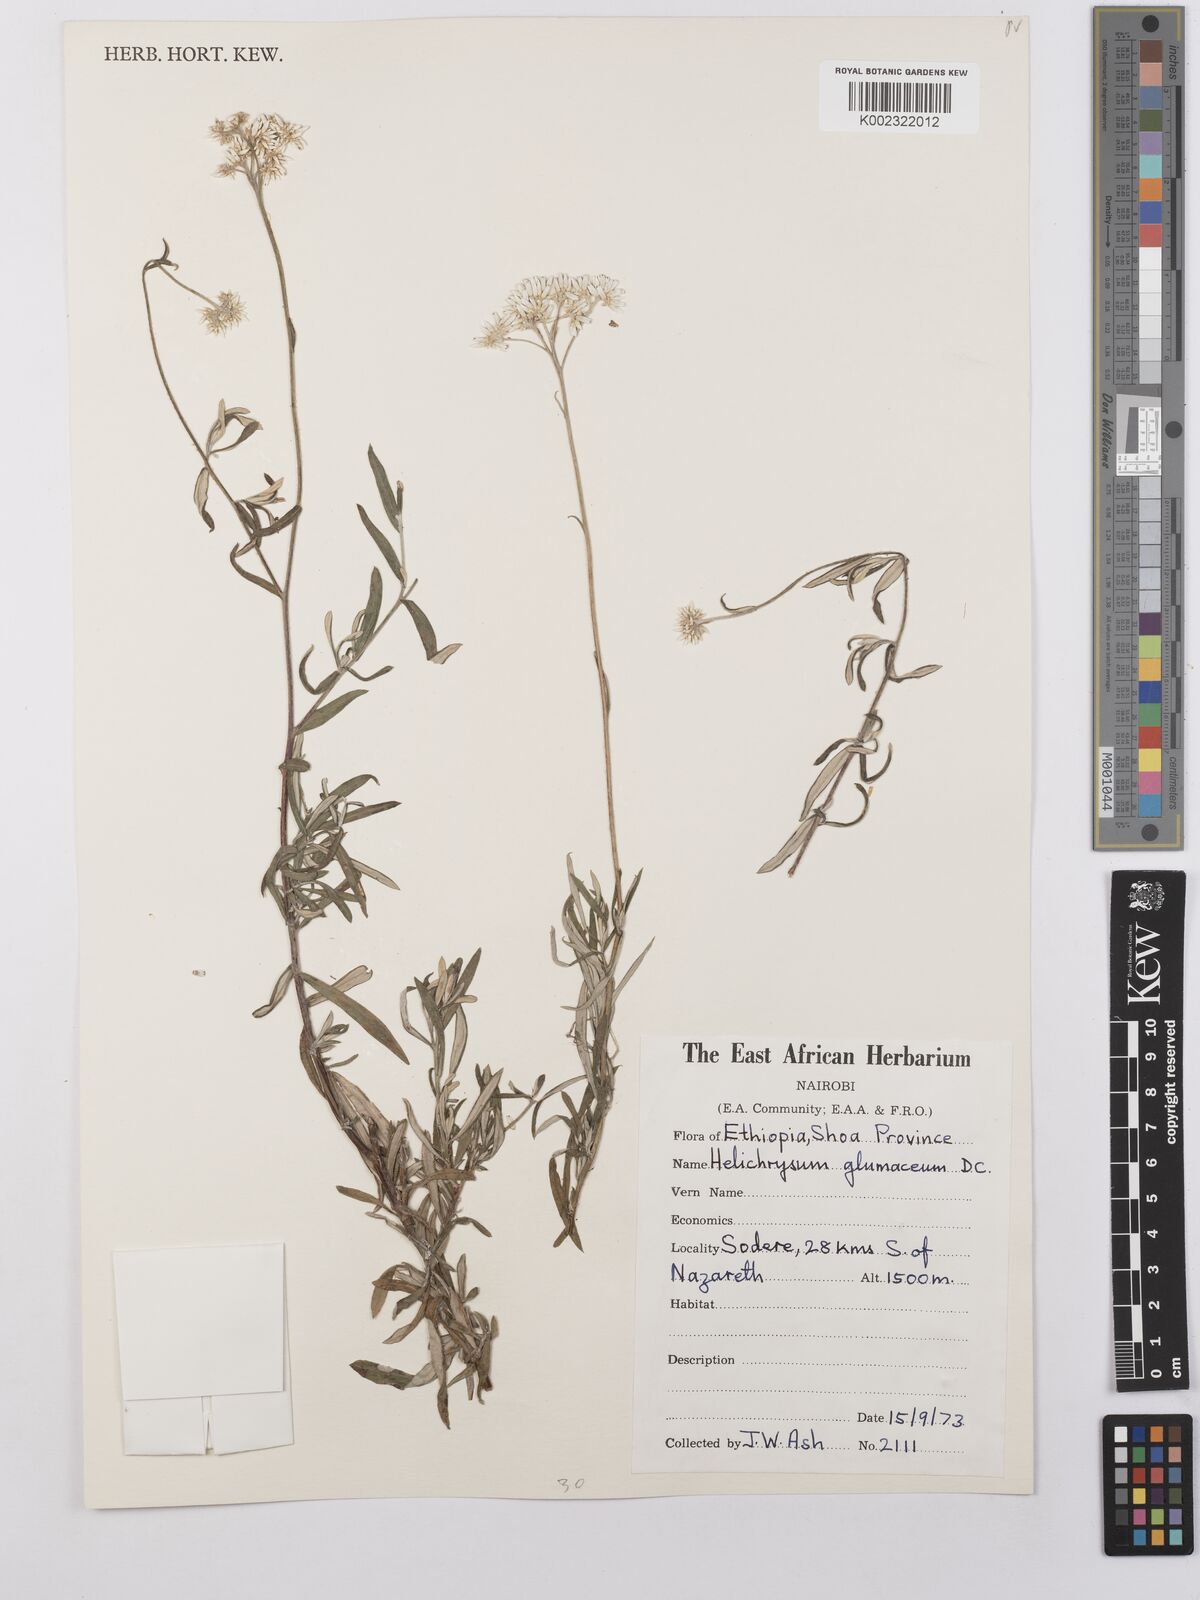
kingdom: Plantae
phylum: Tracheophyta
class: Magnoliopsida
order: Asterales
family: Asteraceae
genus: Helichrysum
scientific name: Helichrysum glumaceum
